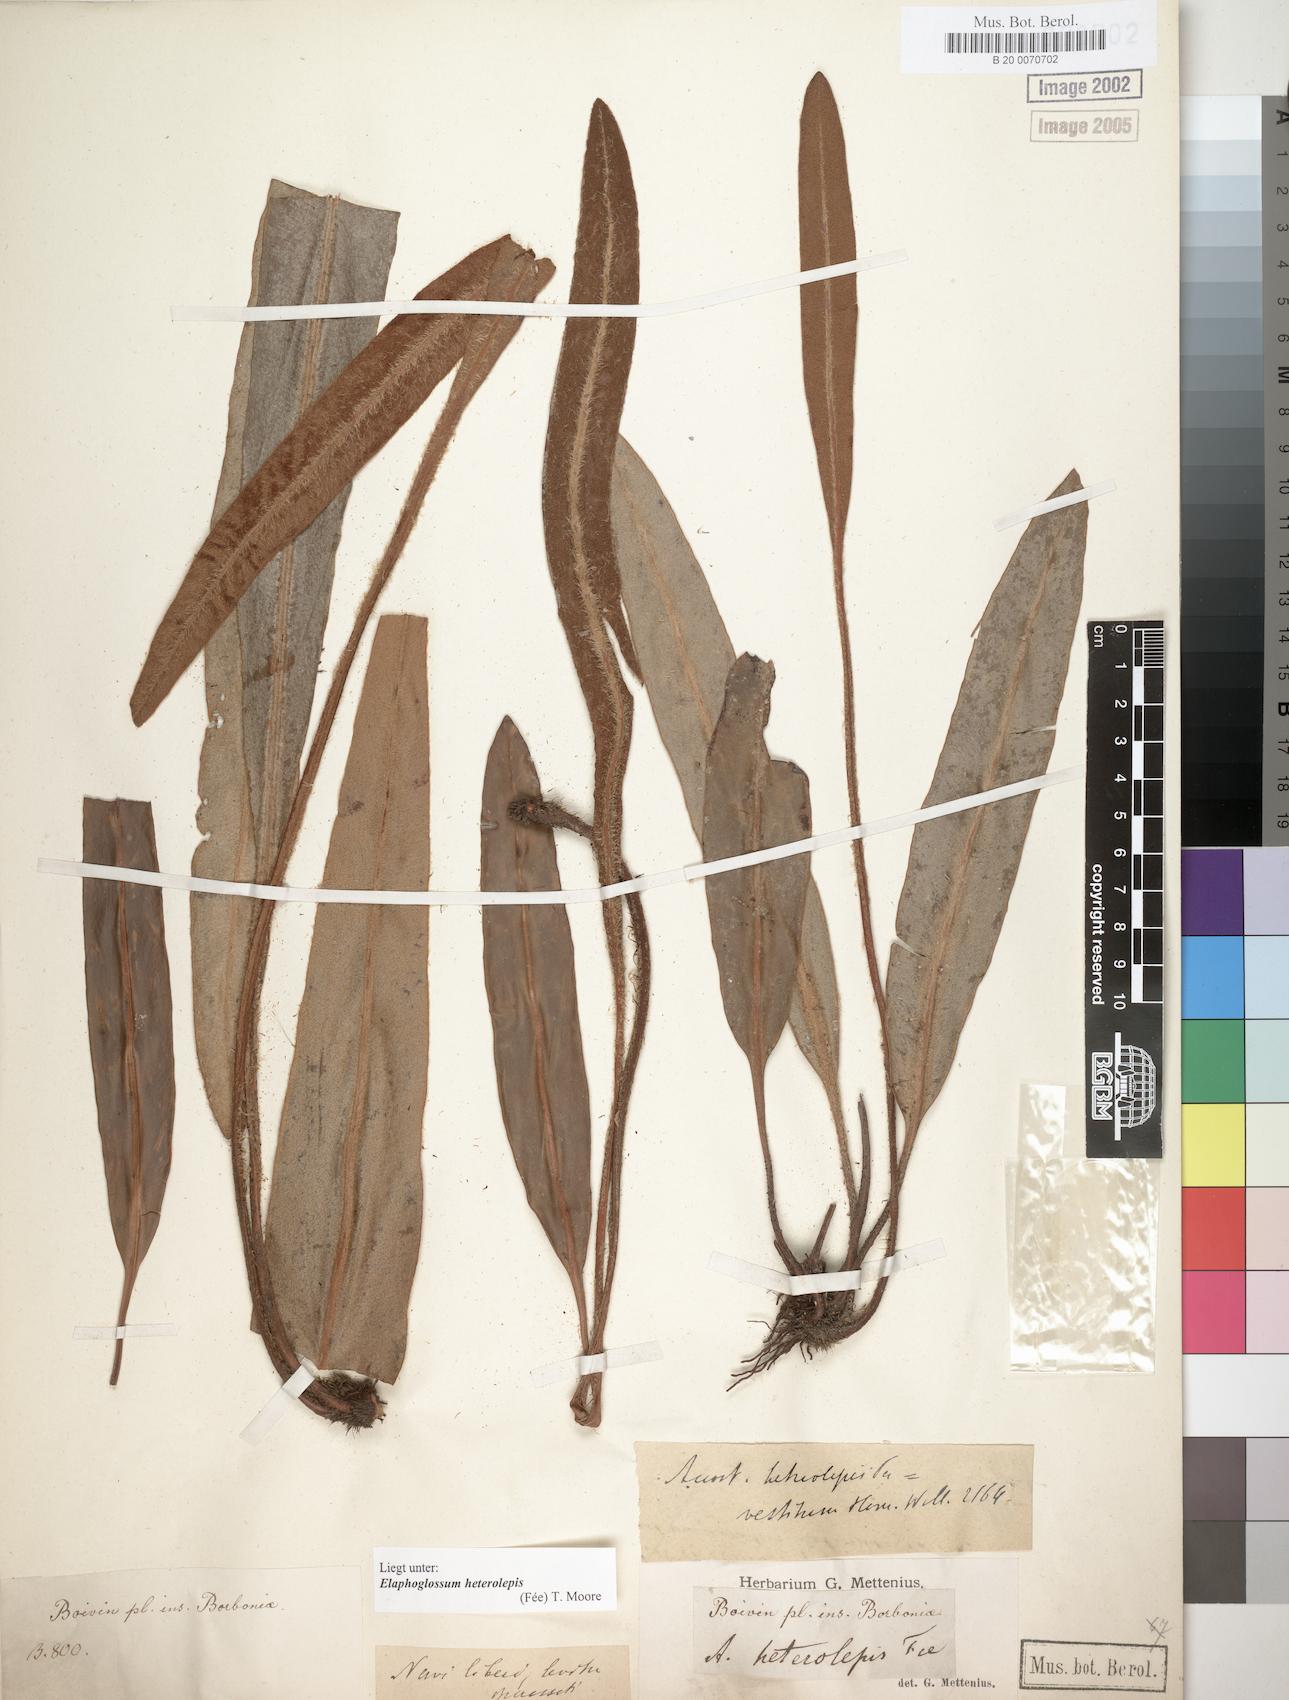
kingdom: Plantae
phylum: Tracheophyta
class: Polypodiopsida
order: Polypodiales
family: Dryopteridaceae
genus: Elaphoglossum
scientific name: Elaphoglossum heterolepis
